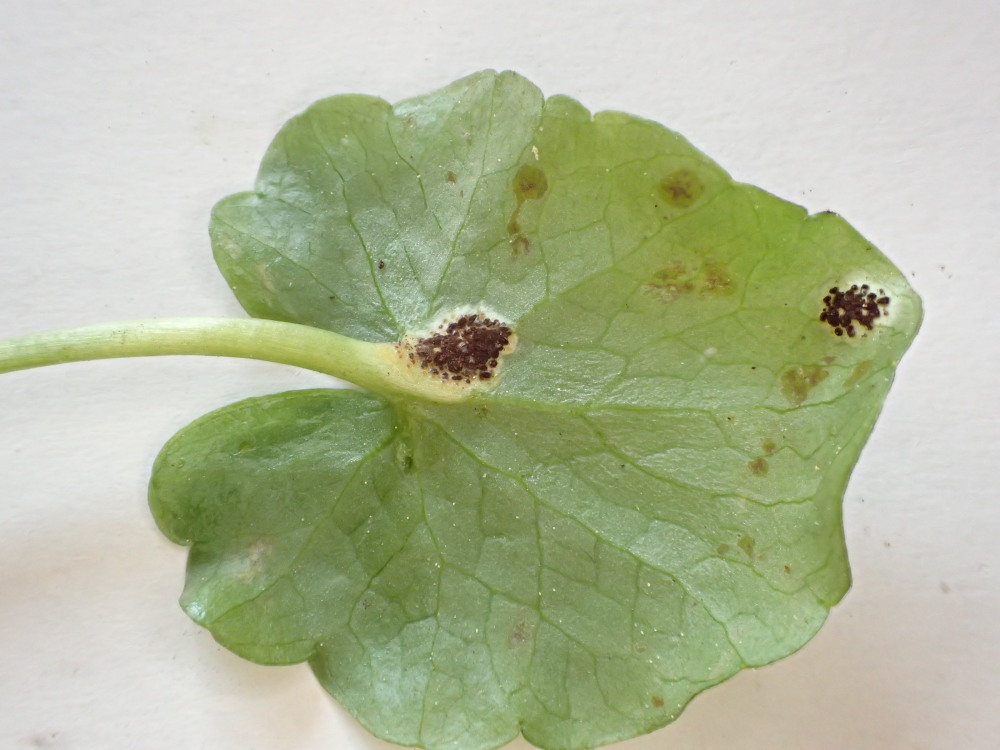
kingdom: Fungi
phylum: Basidiomycota
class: Pucciniomycetes
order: Pucciniales
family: Pucciniaceae
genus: Uromyces
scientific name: Uromyces ficariae
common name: vorterod-encellerust
